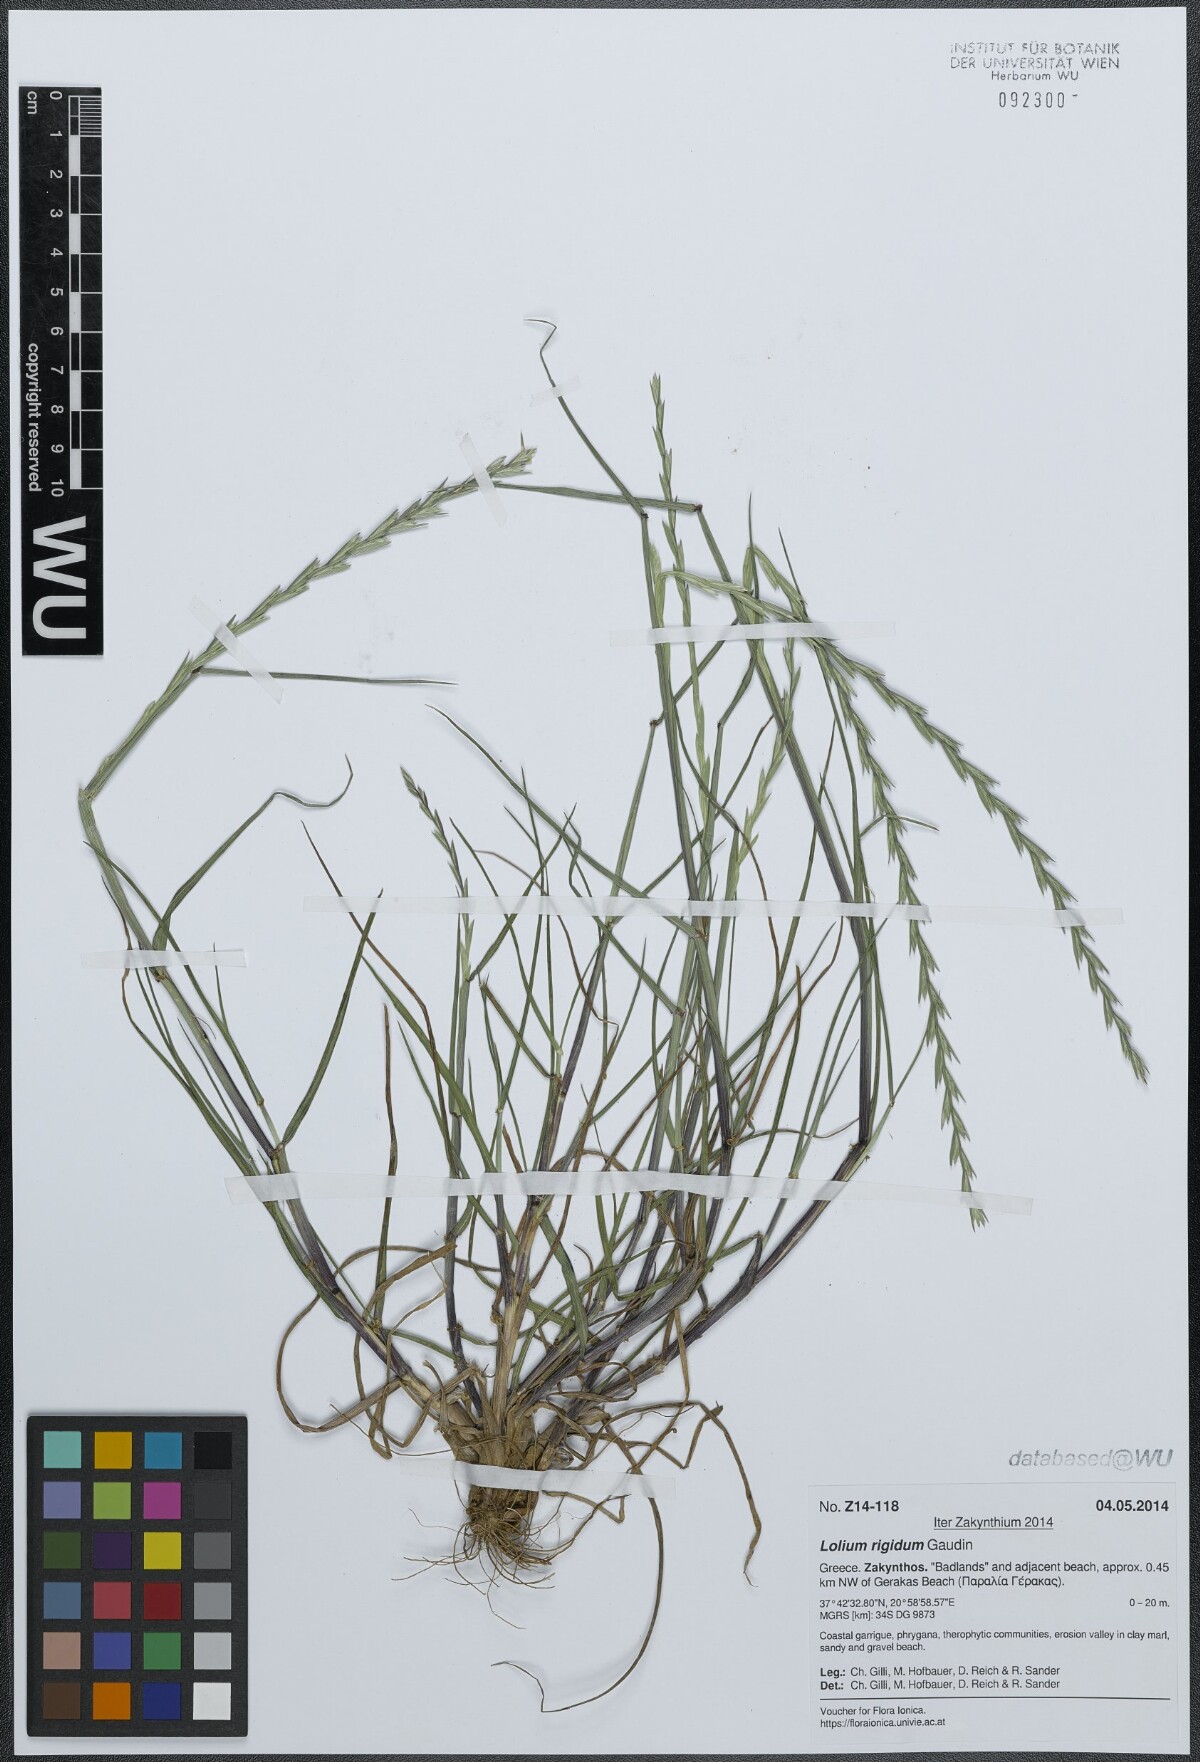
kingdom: Plantae
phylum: Tracheophyta
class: Liliopsida
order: Poales
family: Poaceae
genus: Lolium
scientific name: Lolium rigidum
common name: Wimmera ryegrass
